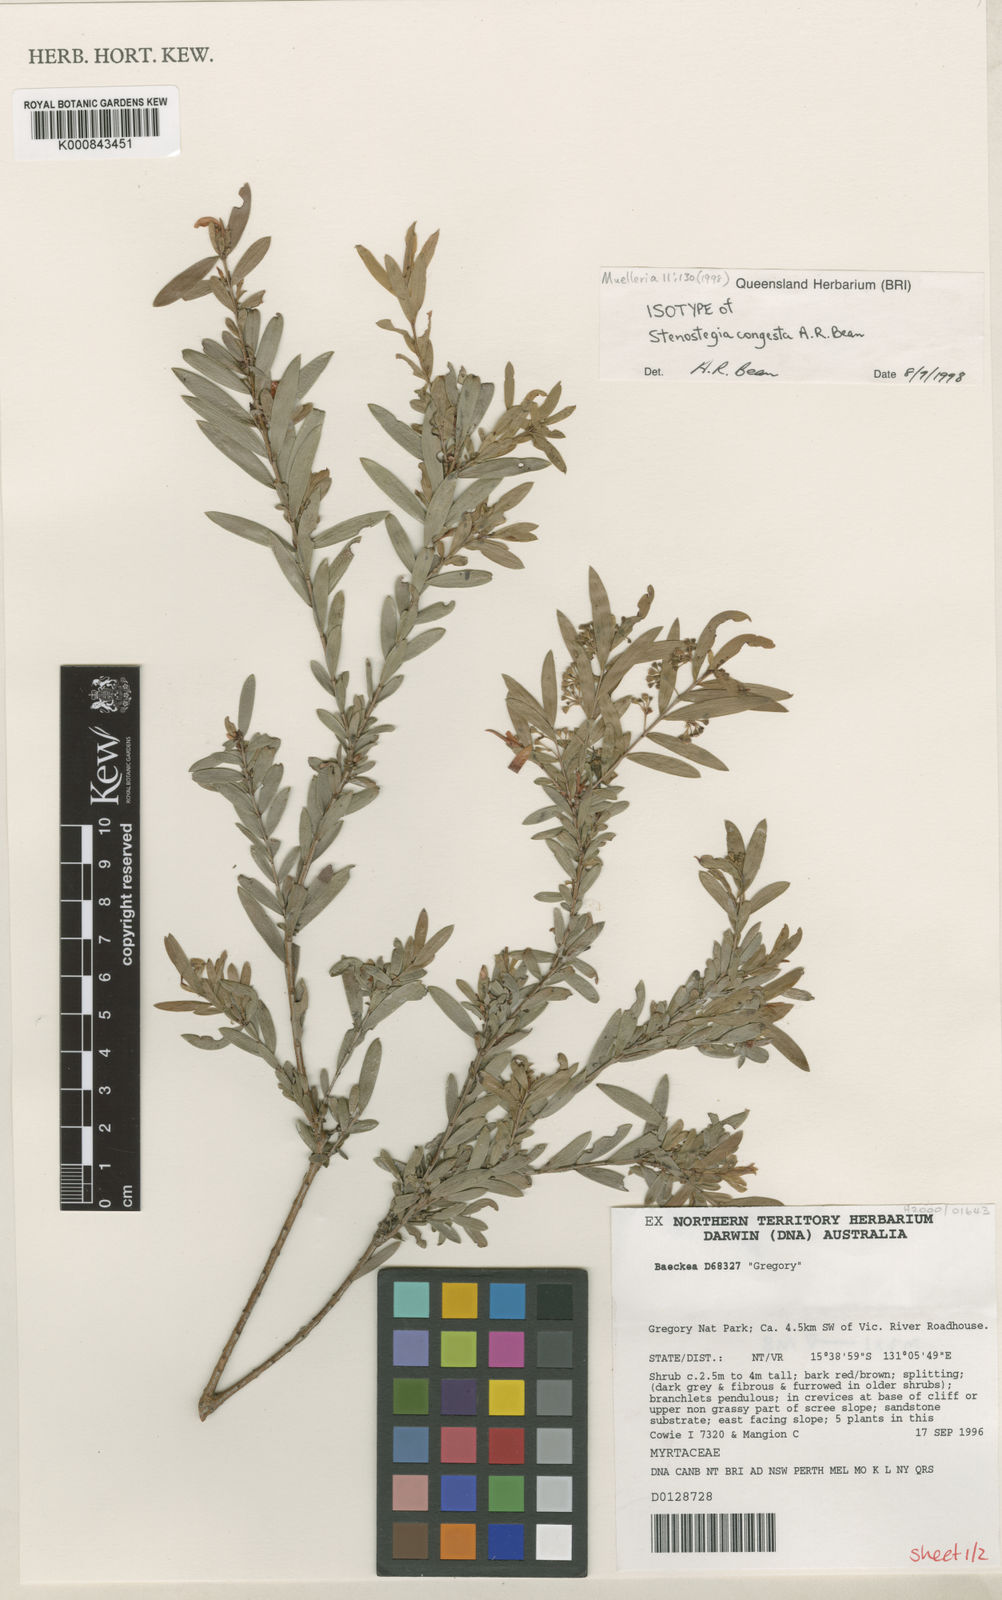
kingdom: Plantae
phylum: Tracheophyta
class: Magnoliopsida
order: Myrtales
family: Myrtaceae
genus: Stenostegia
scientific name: Stenostegia congesta
